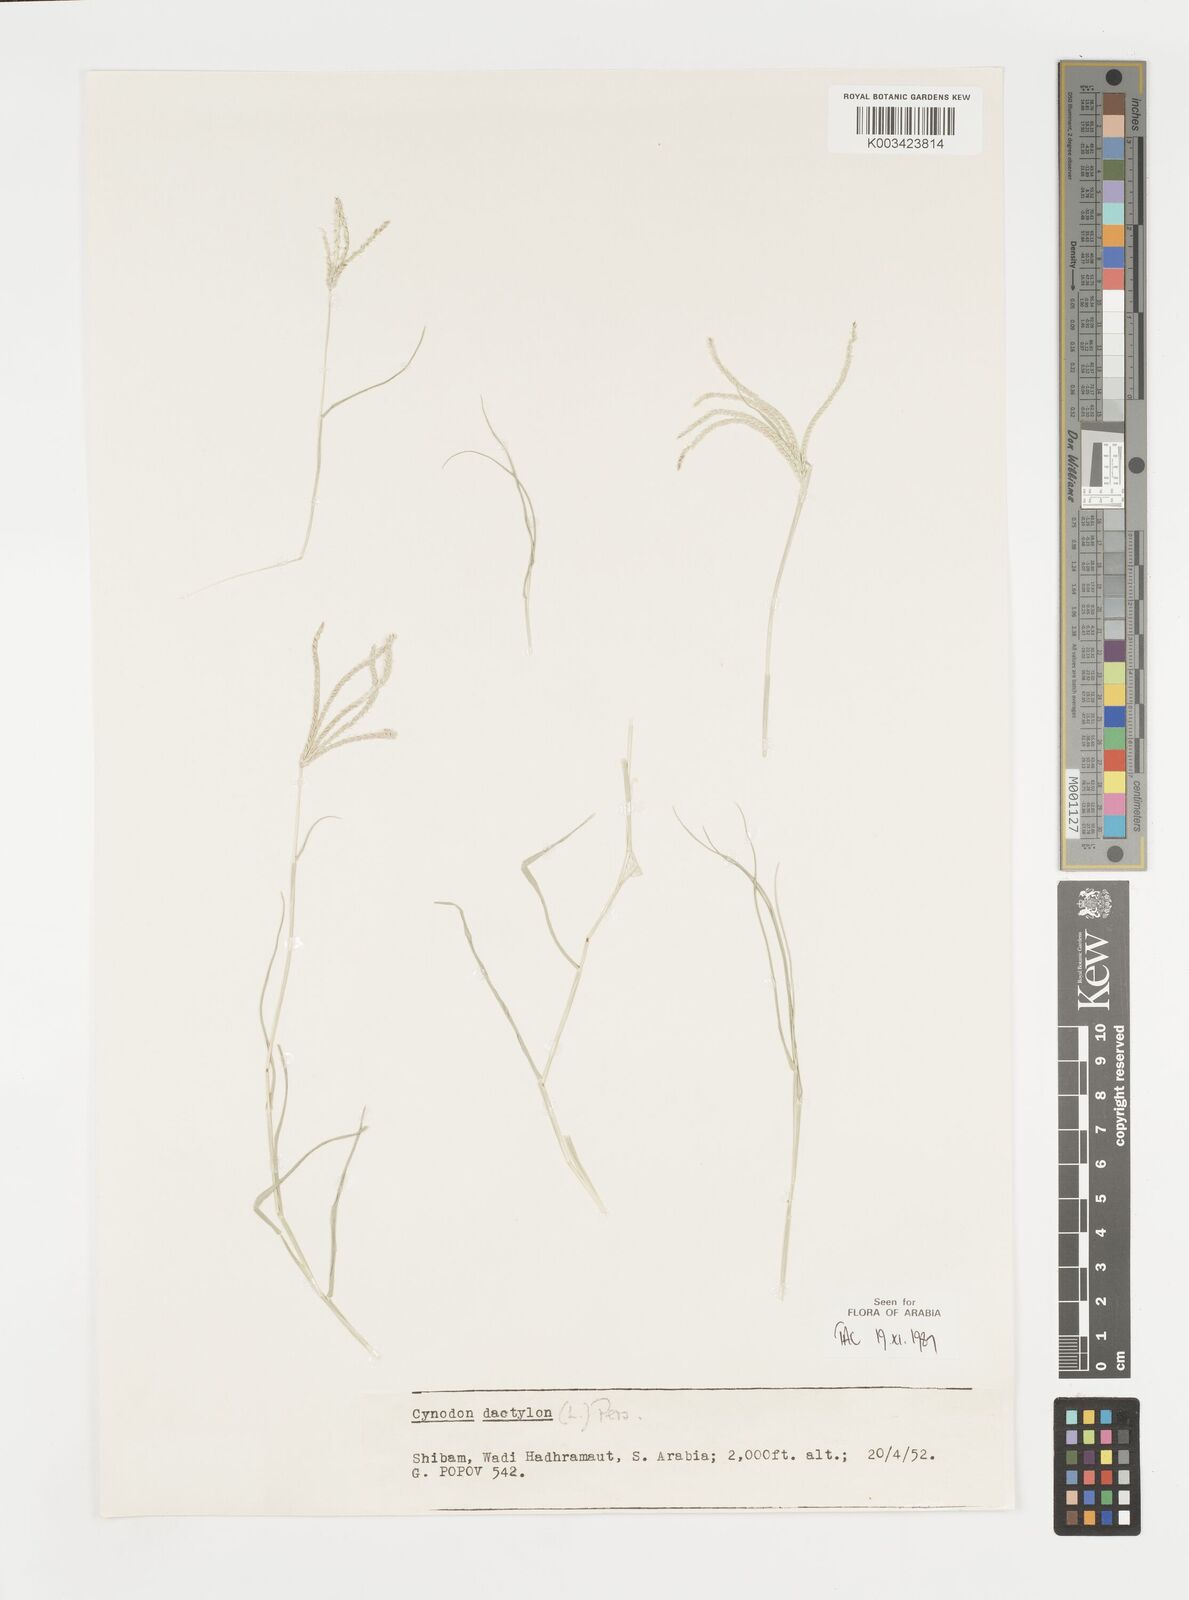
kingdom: Plantae
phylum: Tracheophyta
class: Liliopsida
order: Poales
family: Poaceae
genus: Cynodon
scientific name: Cynodon dactylon
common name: Bermuda grass
